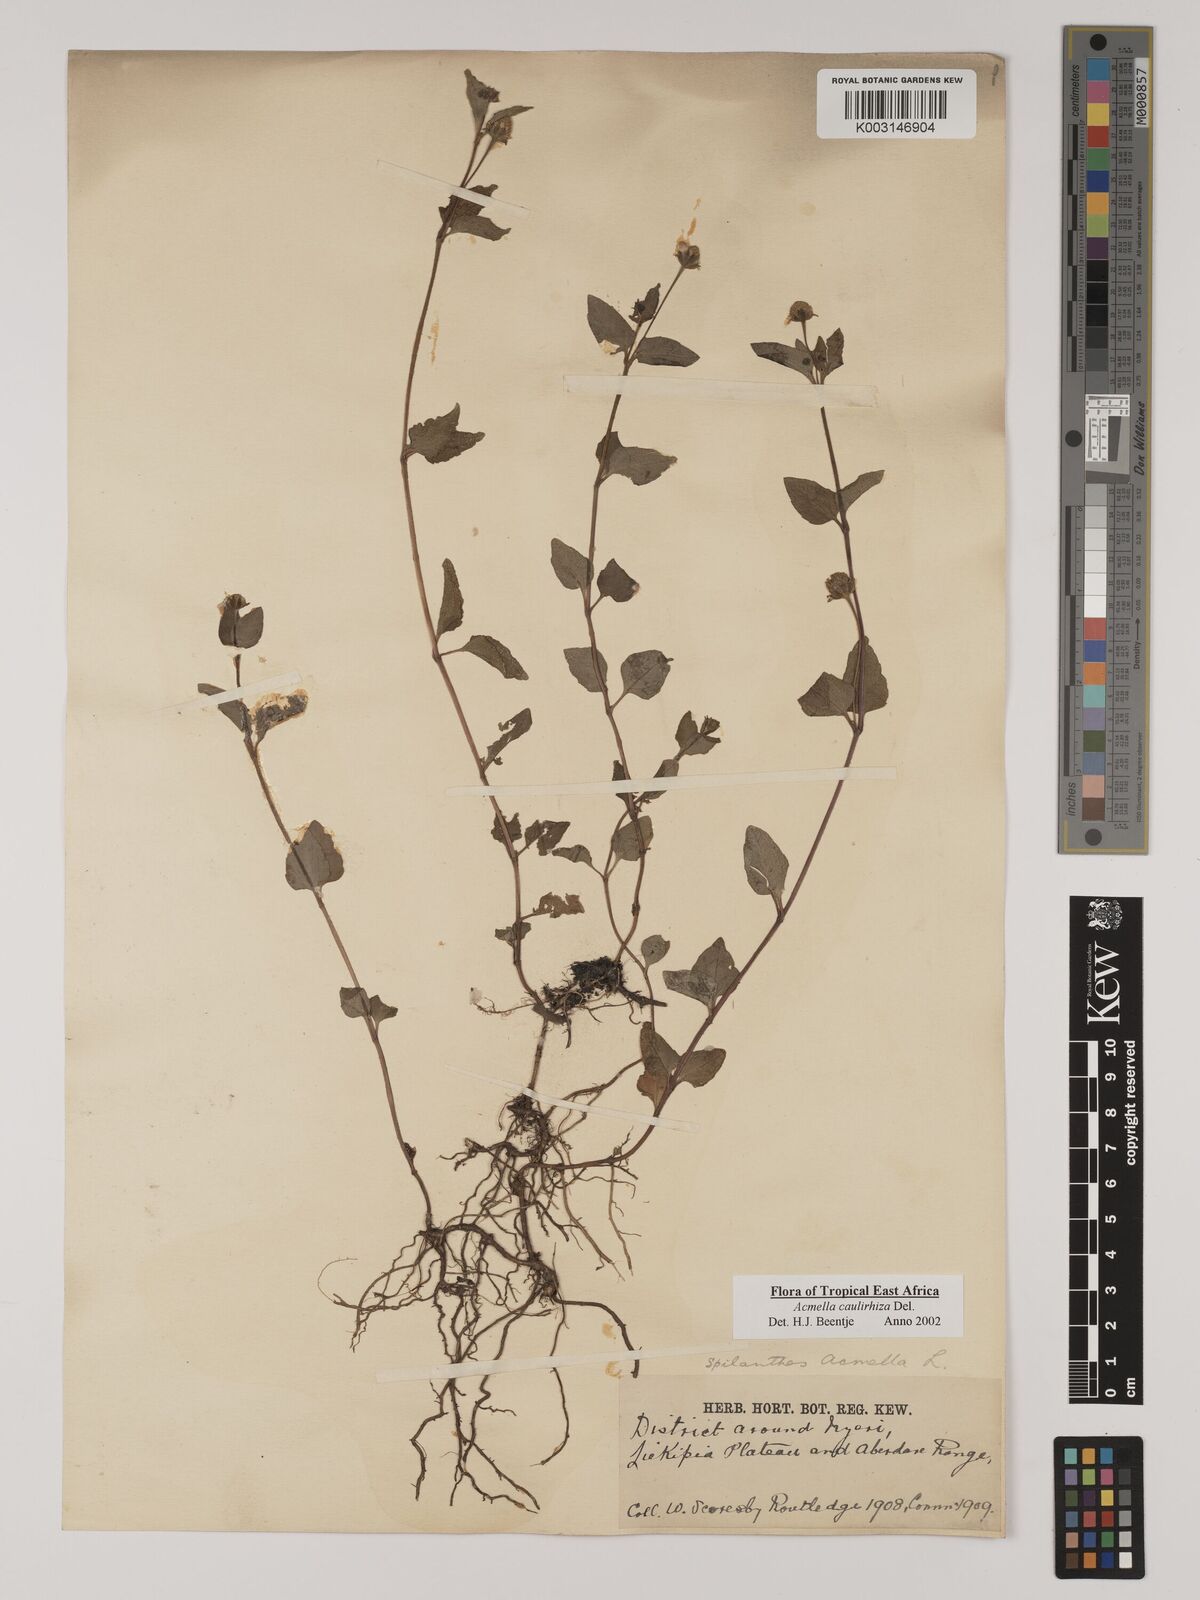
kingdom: Plantae
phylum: Tracheophyta
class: Magnoliopsida
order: Asterales
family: Asteraceae
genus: Acmella
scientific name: Acmella caulirhiza
